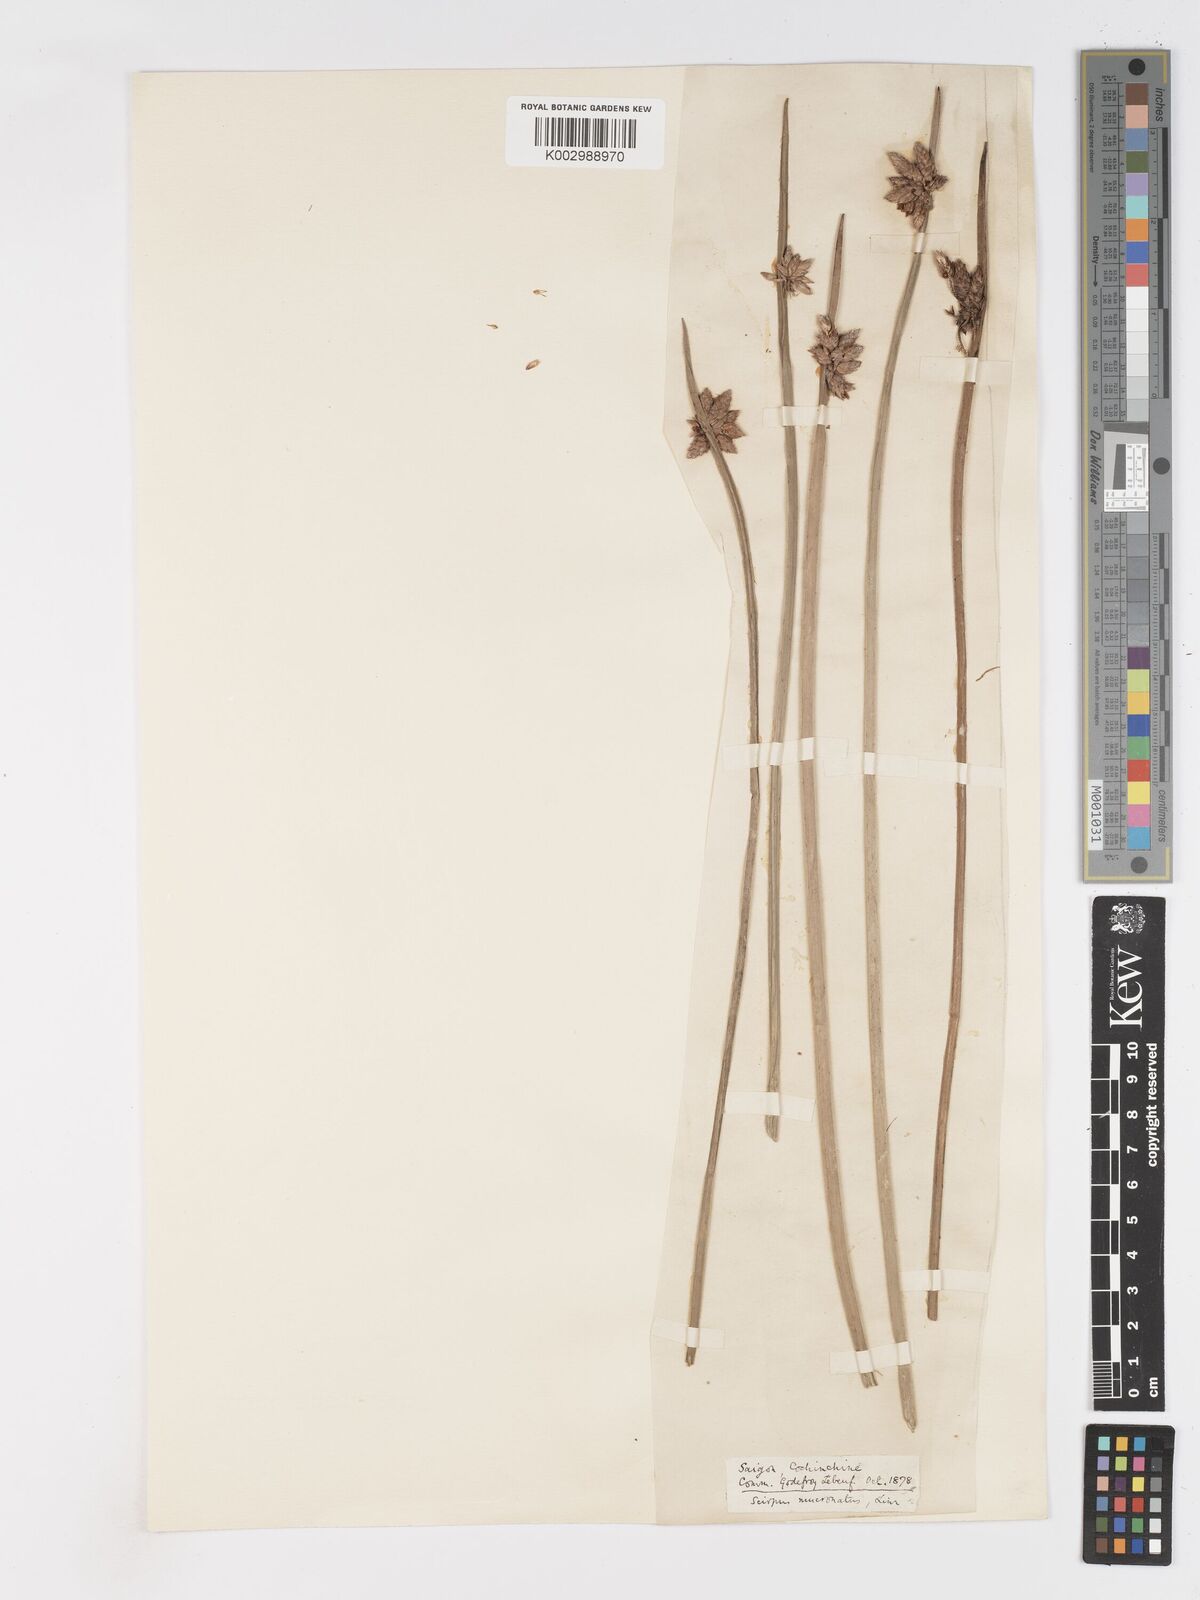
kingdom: Plantae
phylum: Tracheophyta
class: Liliopsida
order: Poales
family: Cyperaceae
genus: Schoenoplectiella
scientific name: Schoenoplectiella mucronata
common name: Bog bulrush
